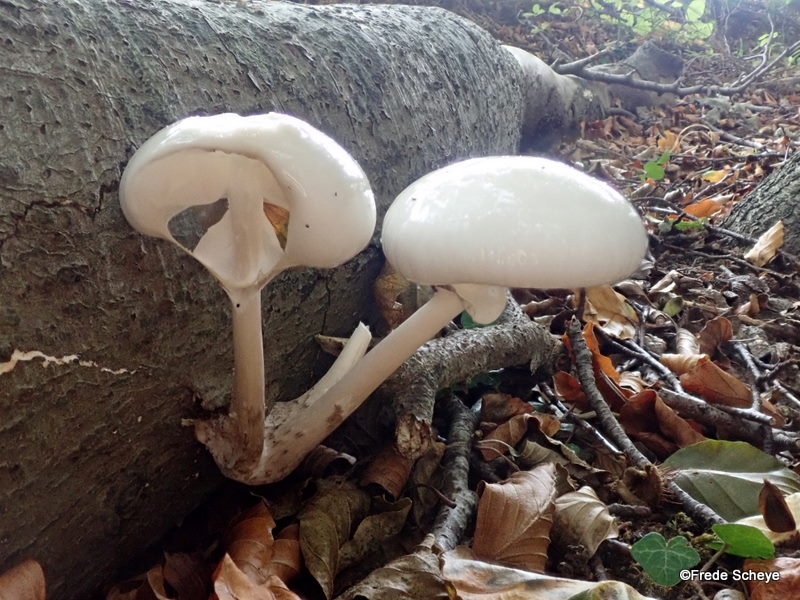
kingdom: Fungi
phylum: Basidiomycota
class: Agaricomycetes
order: Agaricales
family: Physalacriaceae
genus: Mucidula
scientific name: Mucidula mucida
